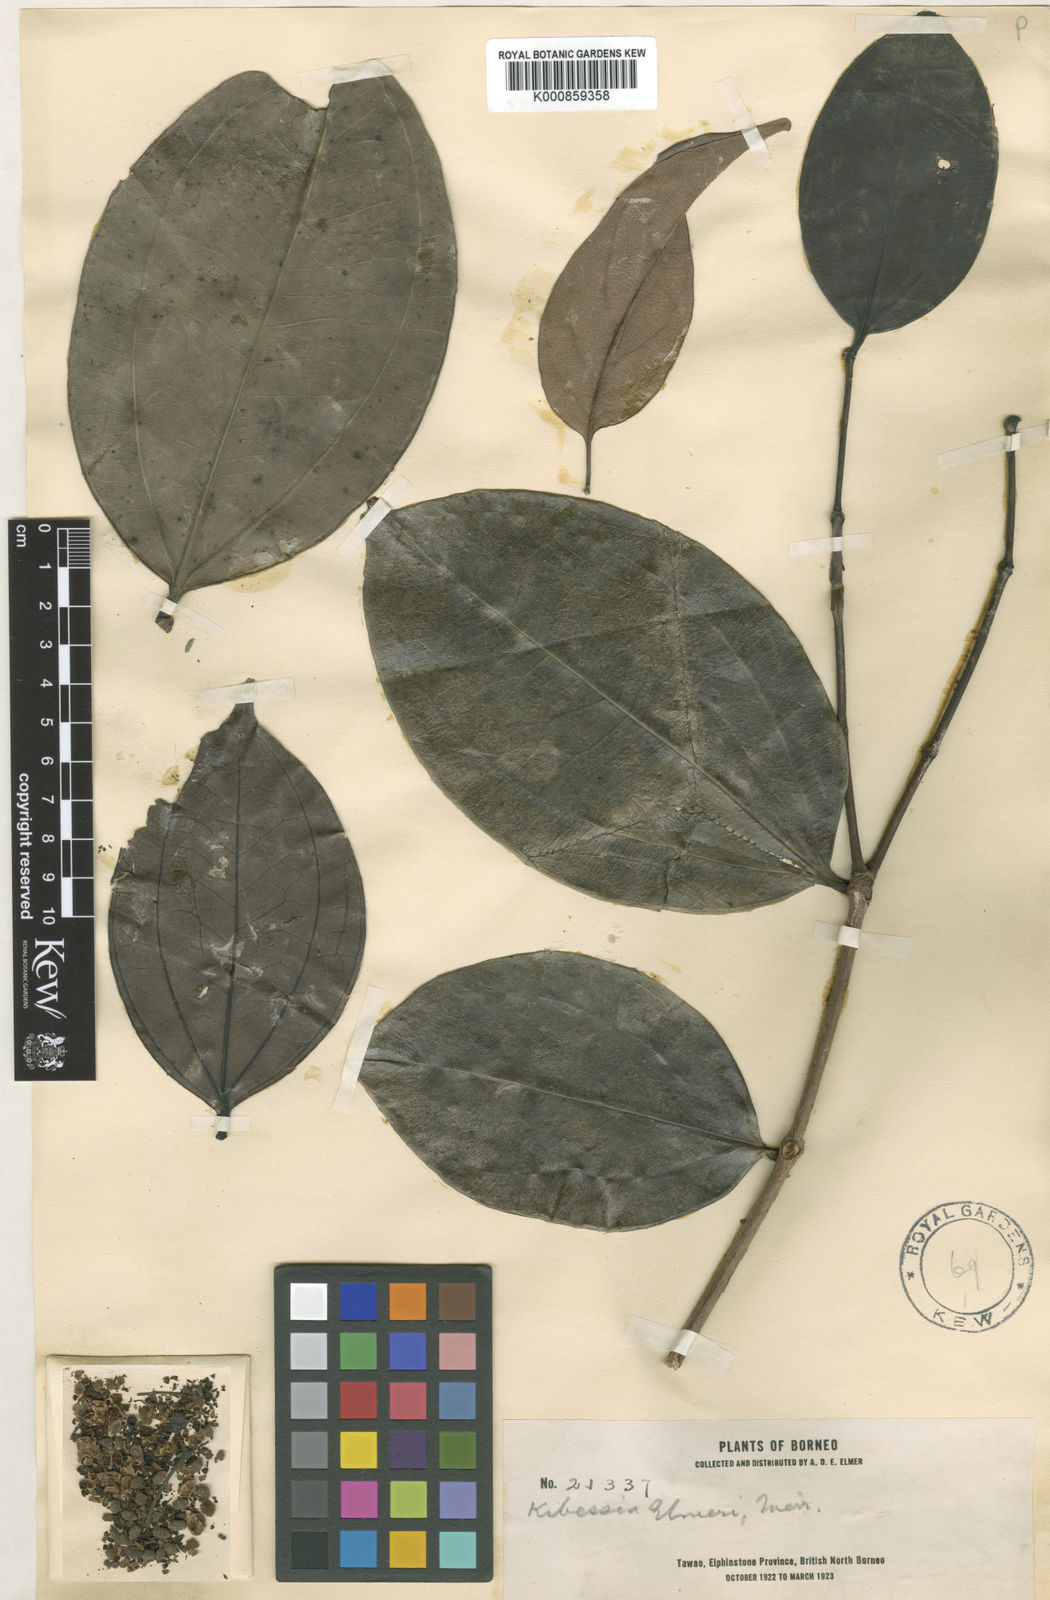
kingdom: Plantae
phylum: Tracheophyta
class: Magnoliopsida
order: Myrtales
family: Melastomataceae
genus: Pternandra
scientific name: Pternandra galeata
